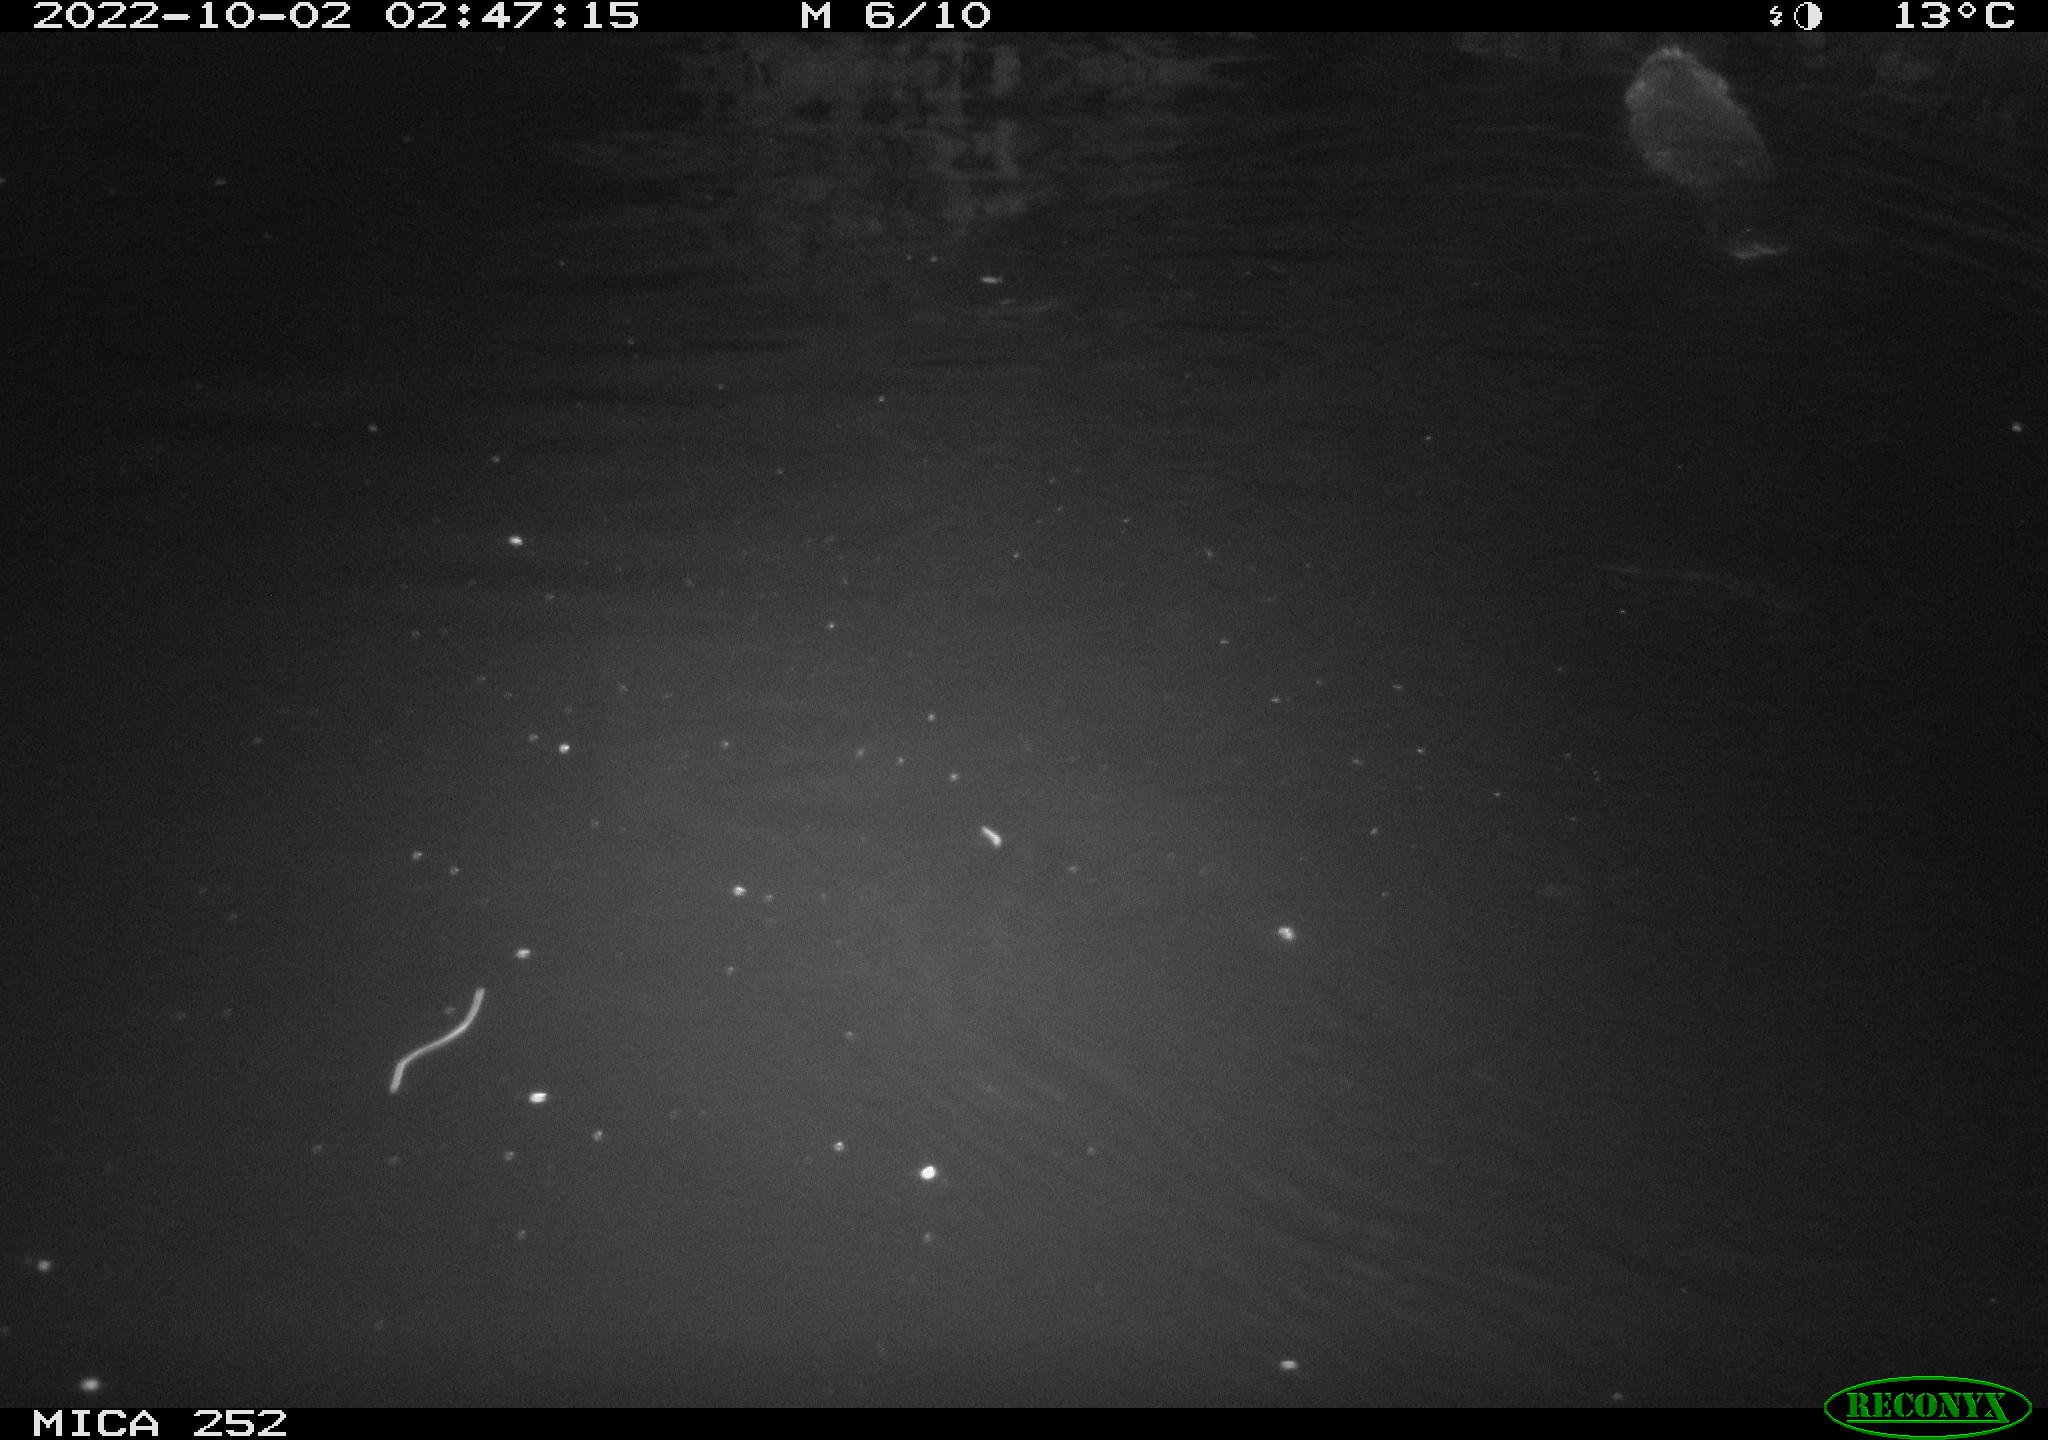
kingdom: Animalia
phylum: Chordata
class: Mammalia
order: Rodentia
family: Castoridae
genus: Castor
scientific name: Castor fiber
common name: Eurasian beaver
